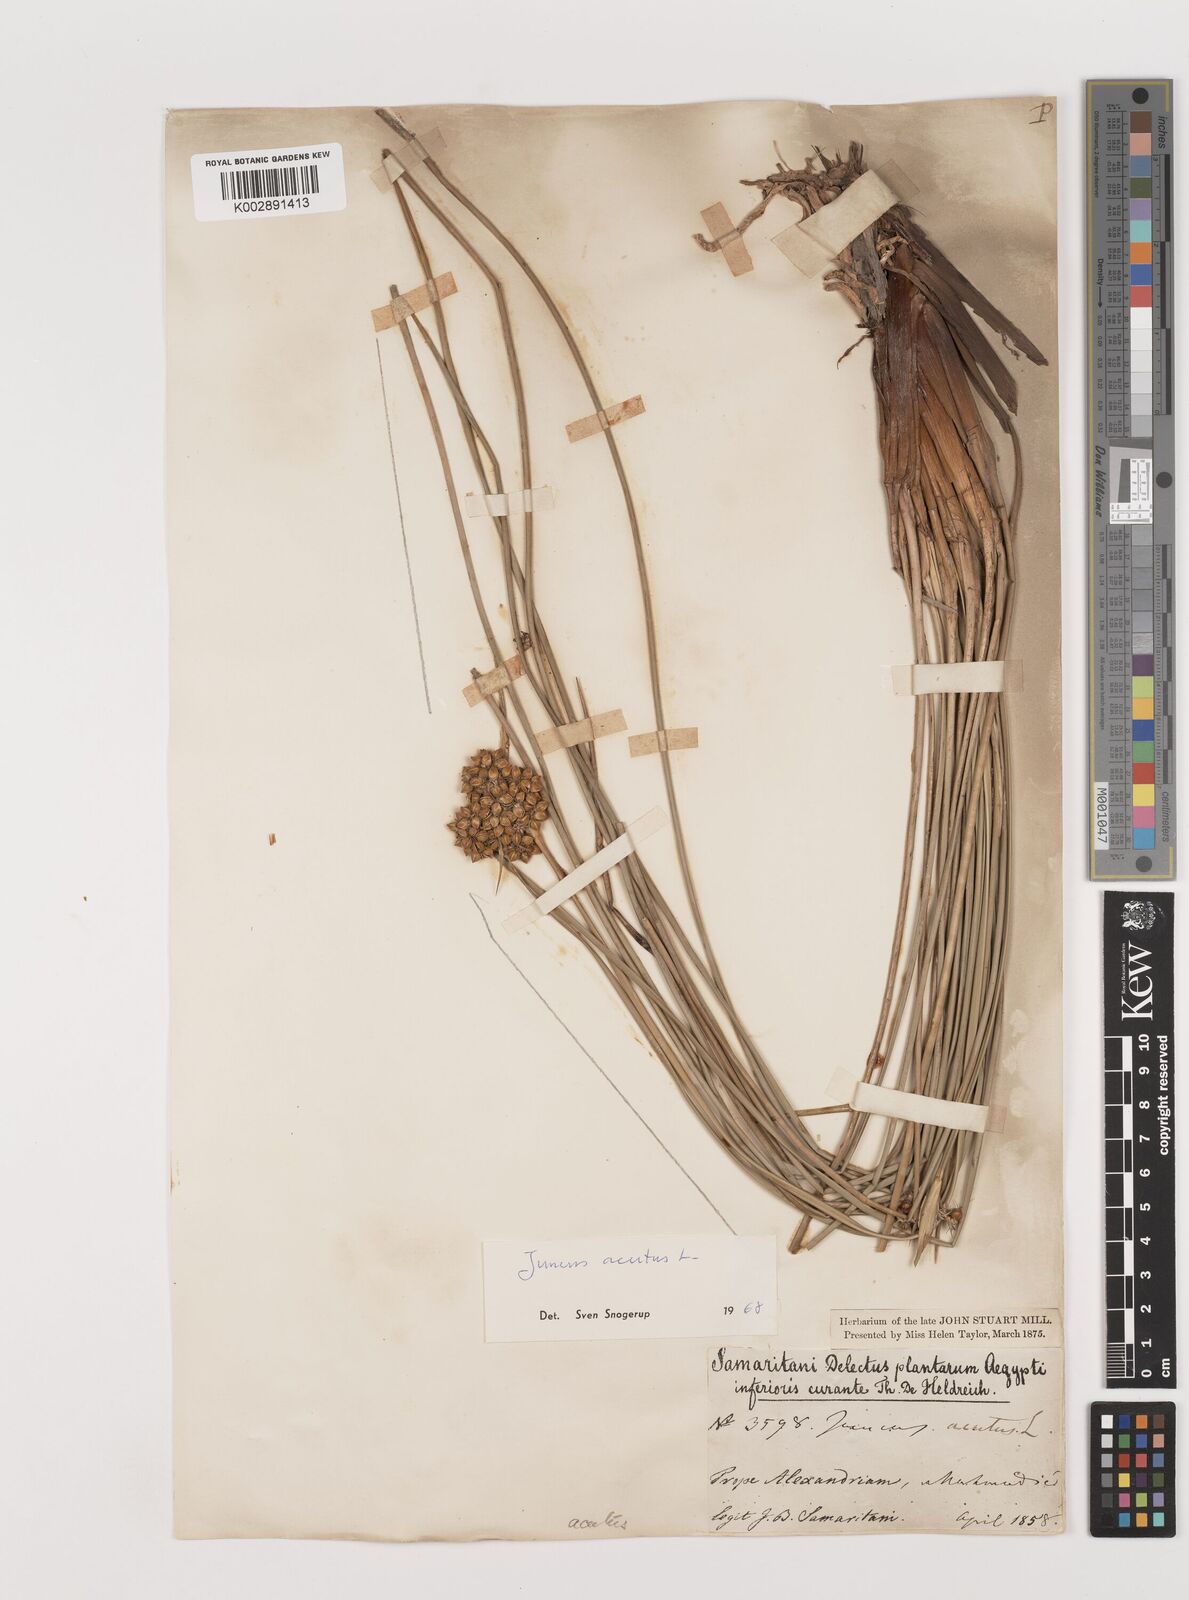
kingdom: Plantae
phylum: Tracheophyta
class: Liliopsida
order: Poales
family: Juncaceae
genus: Juncus
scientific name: Juncus acutus
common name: Sharp rush
